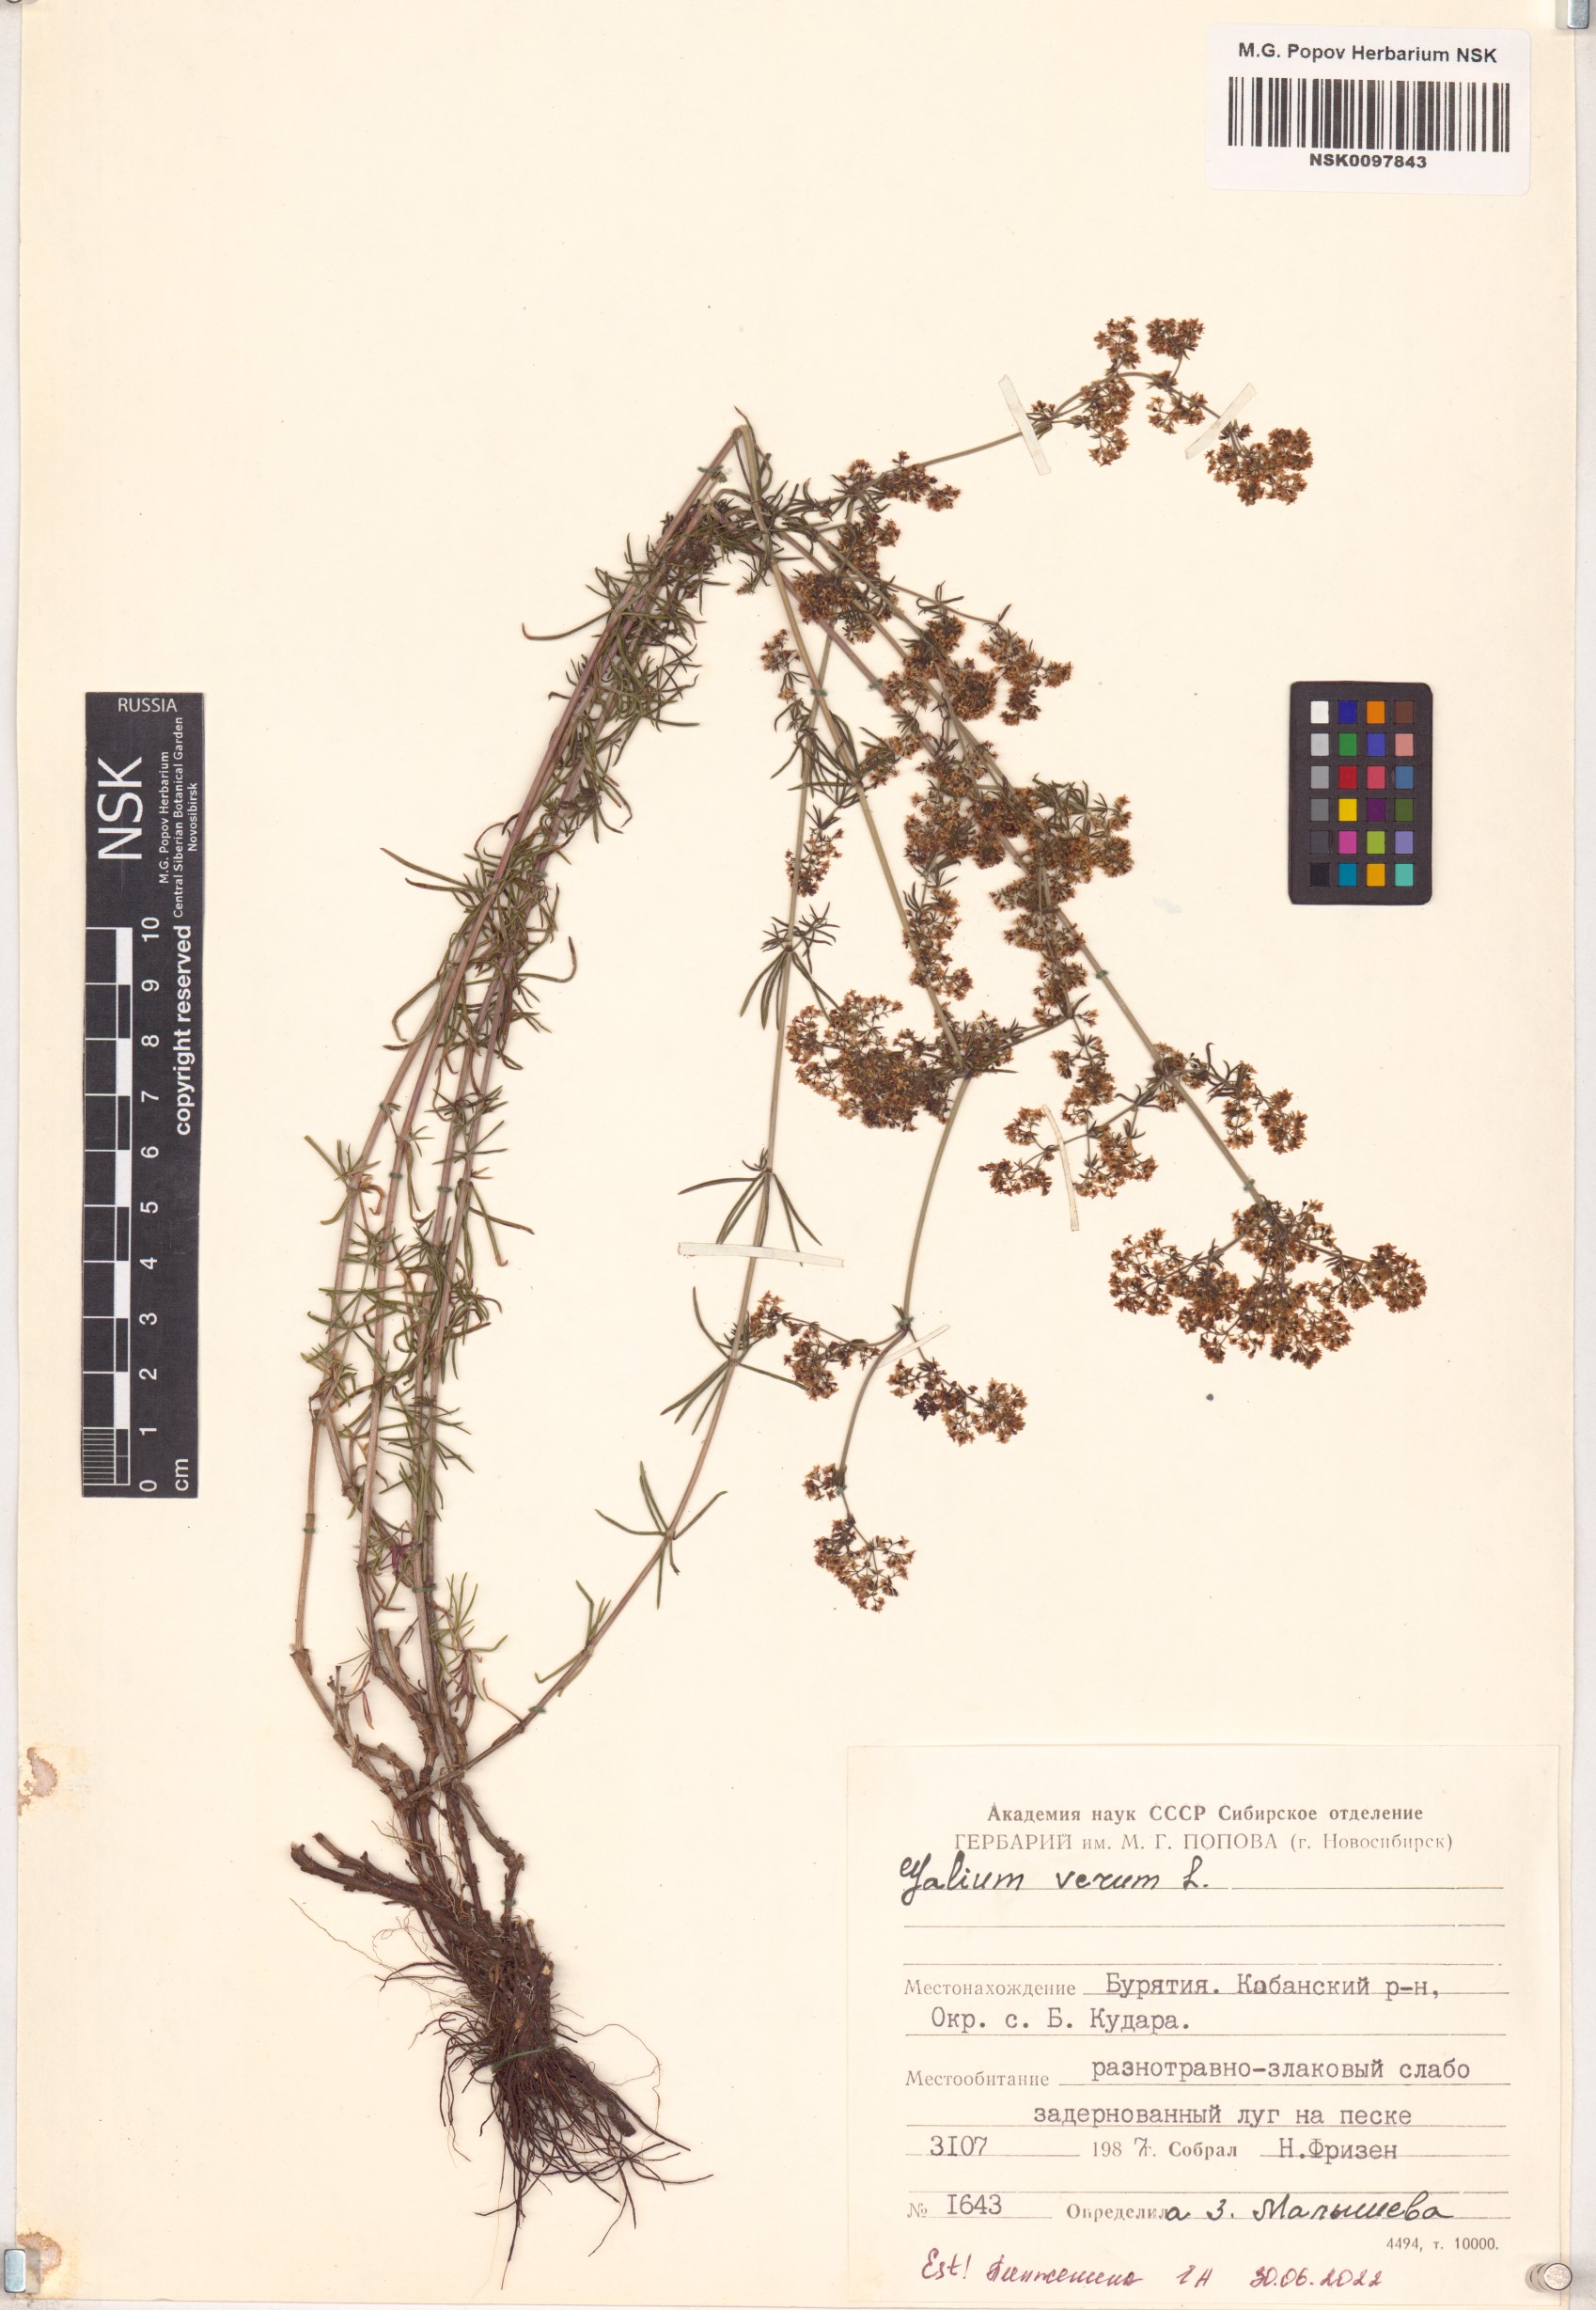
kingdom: Plantae
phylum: Tracheophyta
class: Magnoliopsida
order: Gentianales
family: Rubiaceae
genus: Galium
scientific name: Galium verum
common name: Lady's bedstraw
